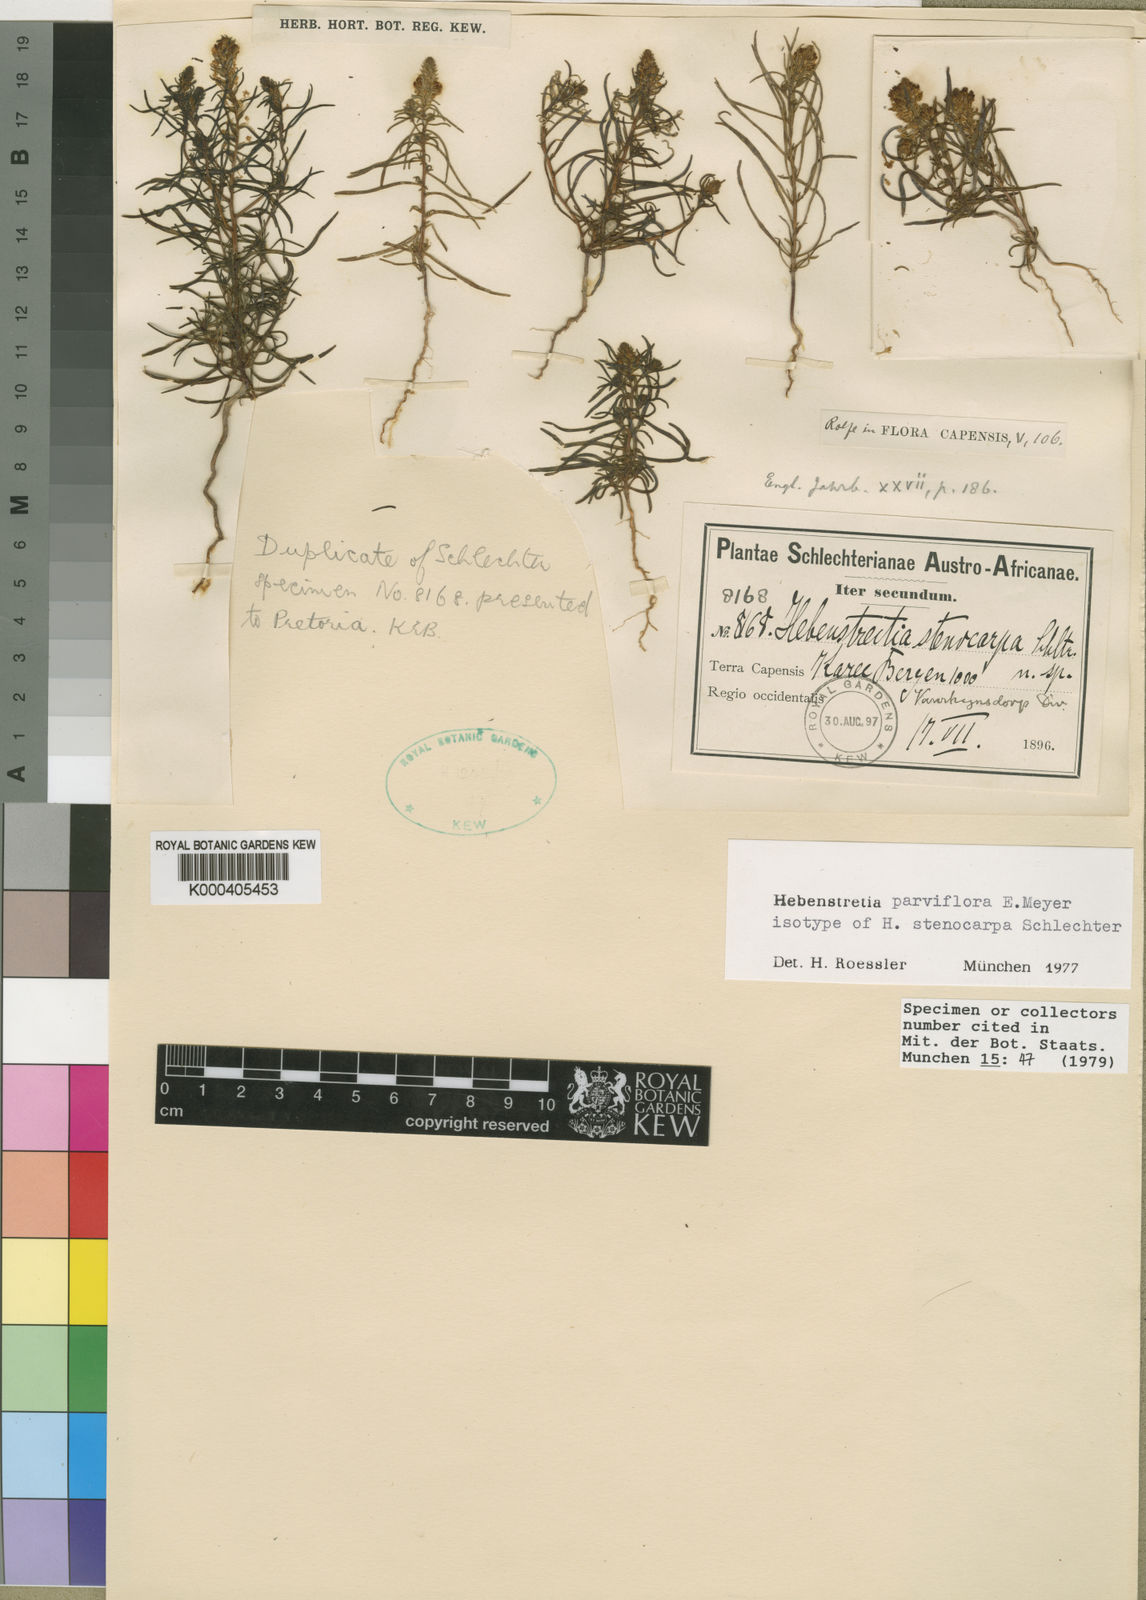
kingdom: Plantae
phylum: Tracheophyta
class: Magnoliopsida
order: Lamiales
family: Scrophulariaceae
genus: Hebenstretia
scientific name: Hebenstretia parviflora
